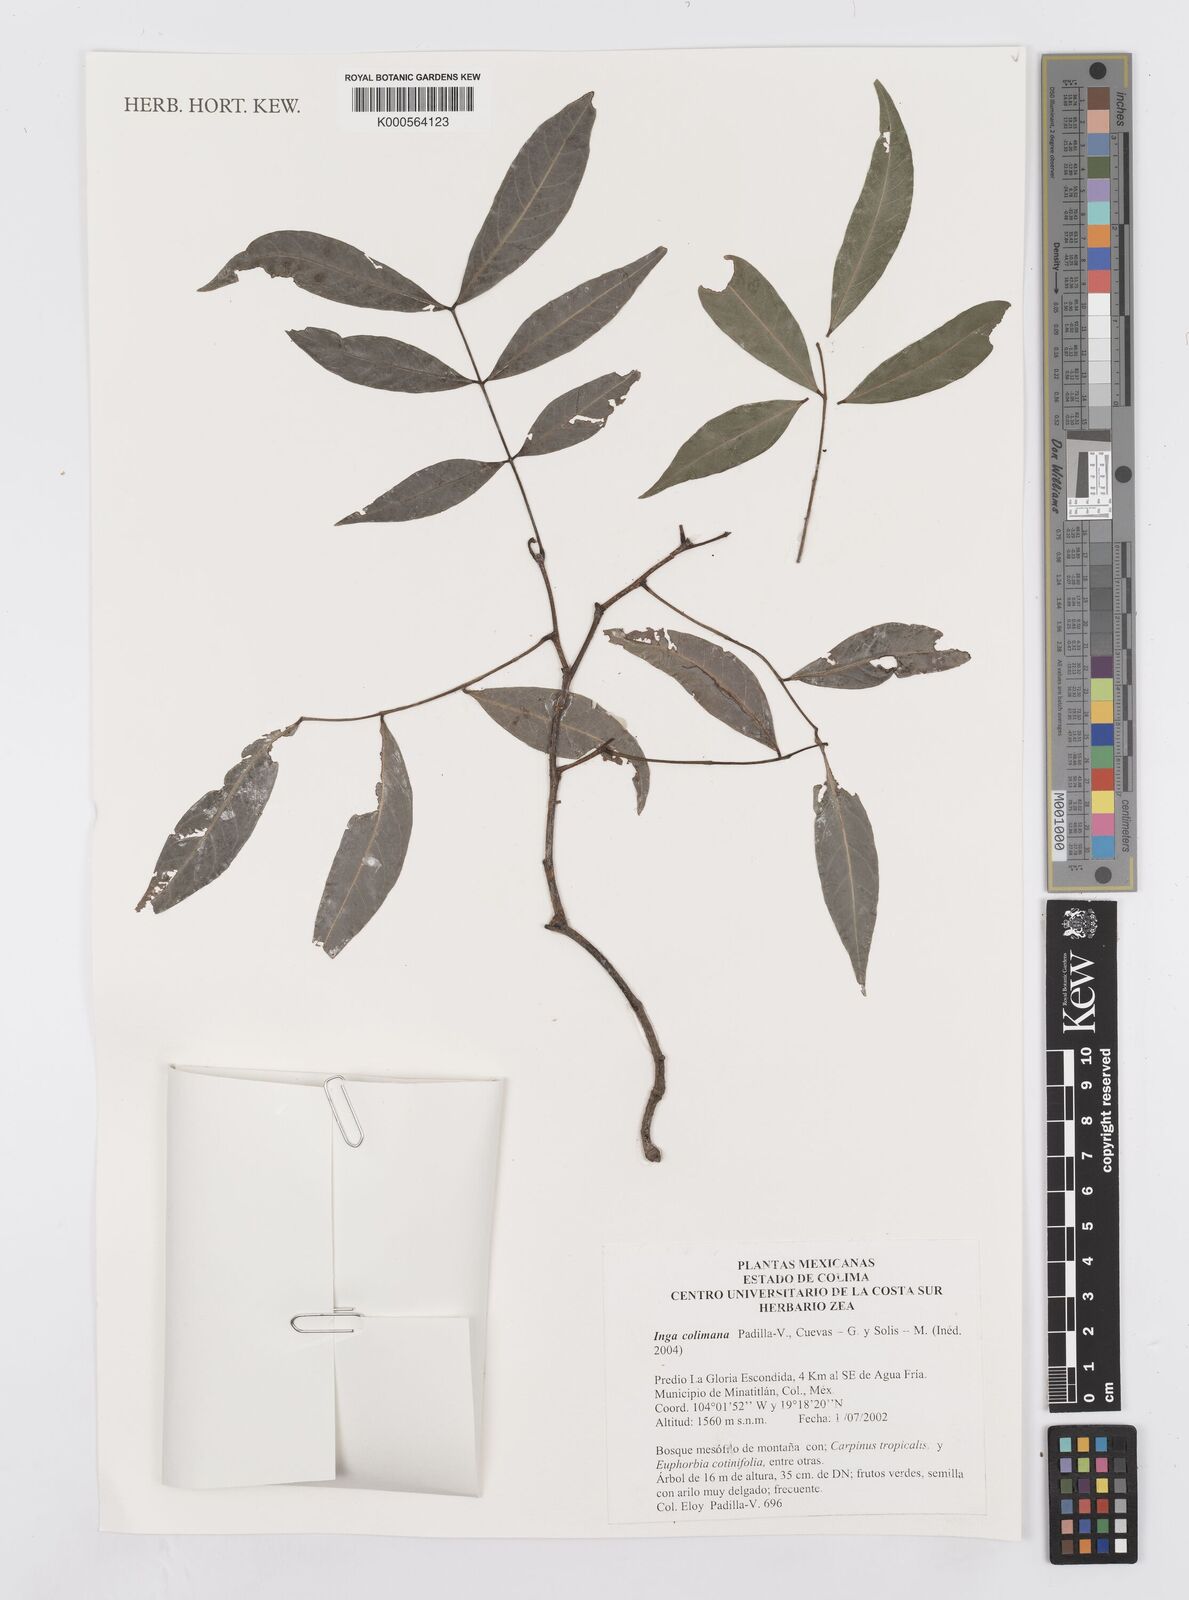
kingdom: Plantae
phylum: Tracheophyta
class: Magnoliopsida
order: Fabales
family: Fabaceae
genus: Inga
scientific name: Inga
